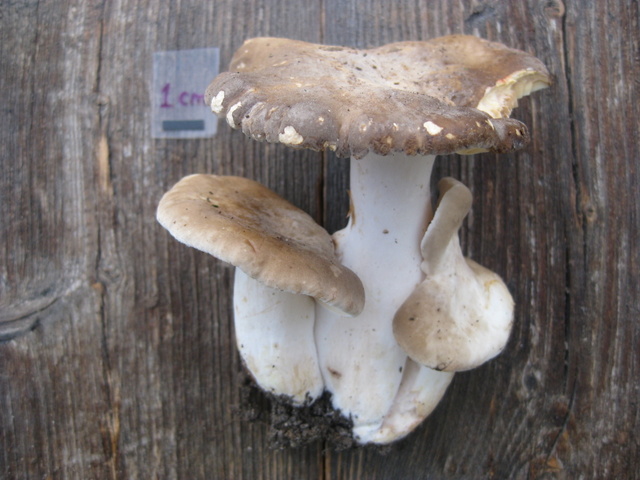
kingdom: Fungi
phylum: Basidiomycota
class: Agaricomycetes
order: Russulales
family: Russulaceae
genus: Lactarius
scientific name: Lactarius acris
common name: rosamælket mælkehat
